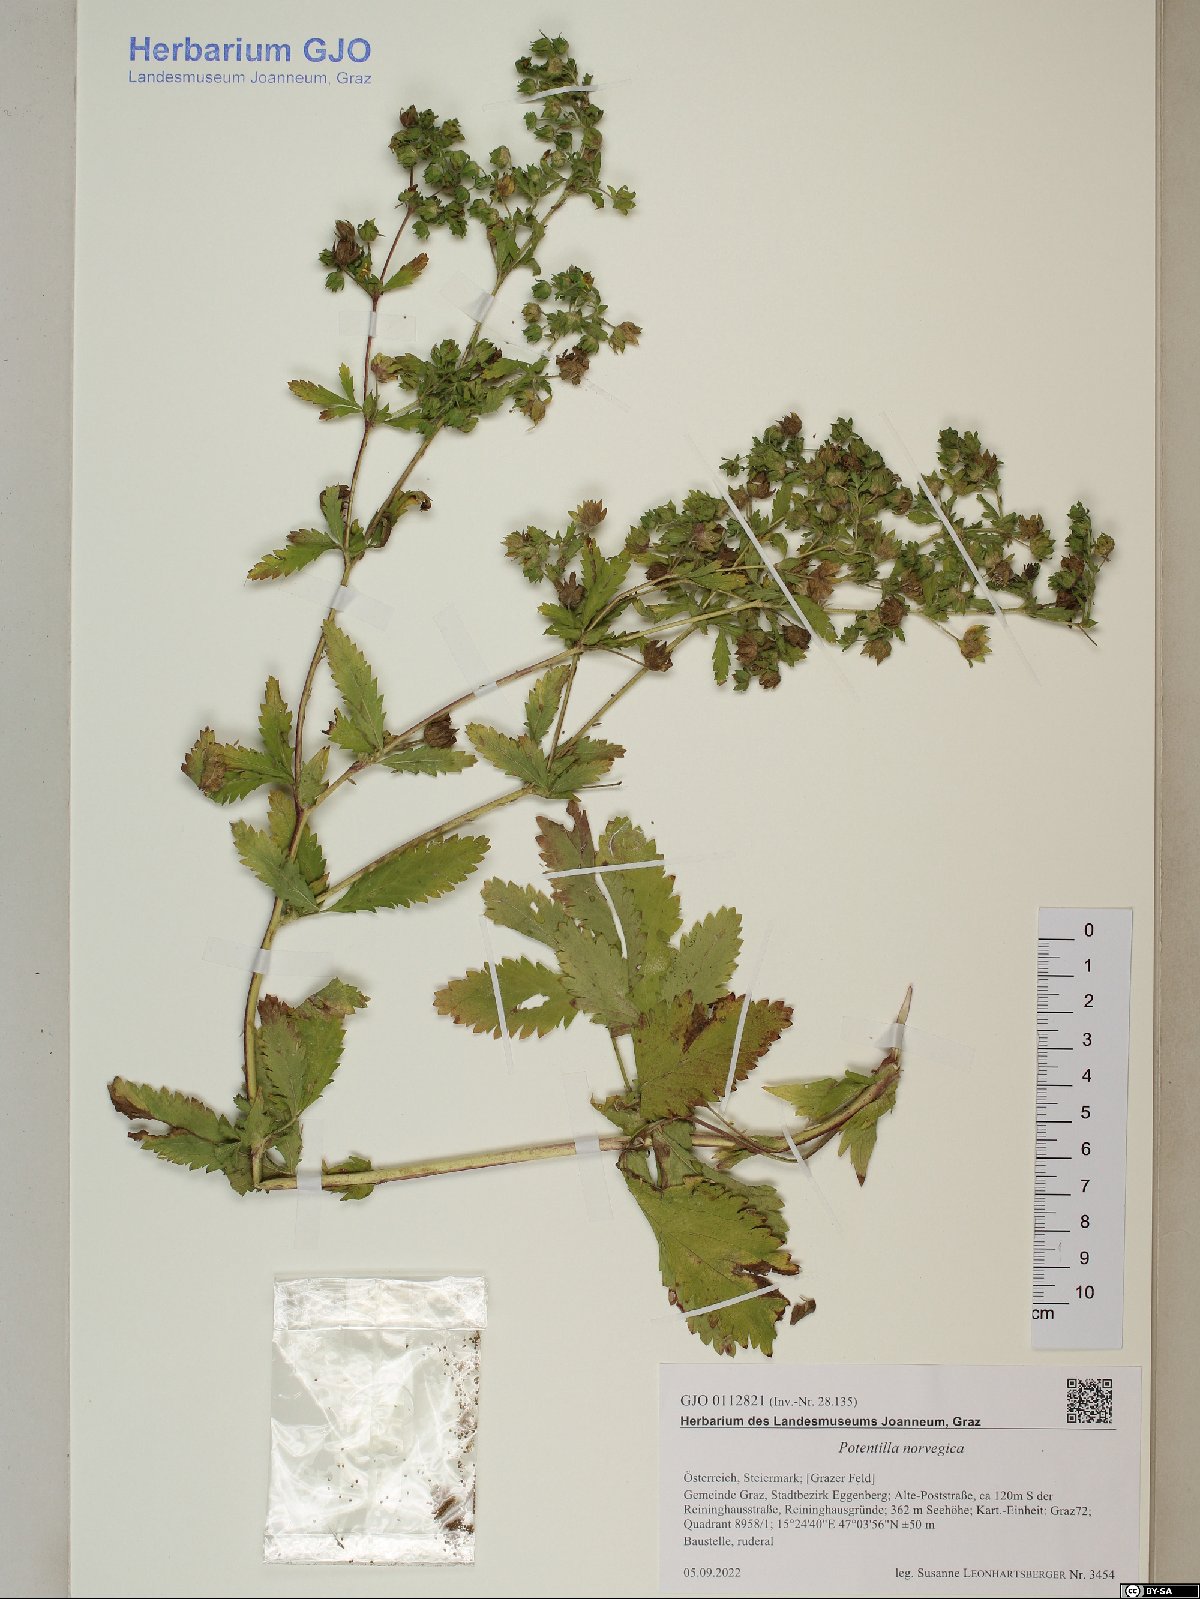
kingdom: Plantae
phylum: Tracheophyta
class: Magnoliopsida
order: Rosales
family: Rosaceae
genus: Potentilla
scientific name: Potentilla norvegica
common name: Ternate-leaved cinquefoil
